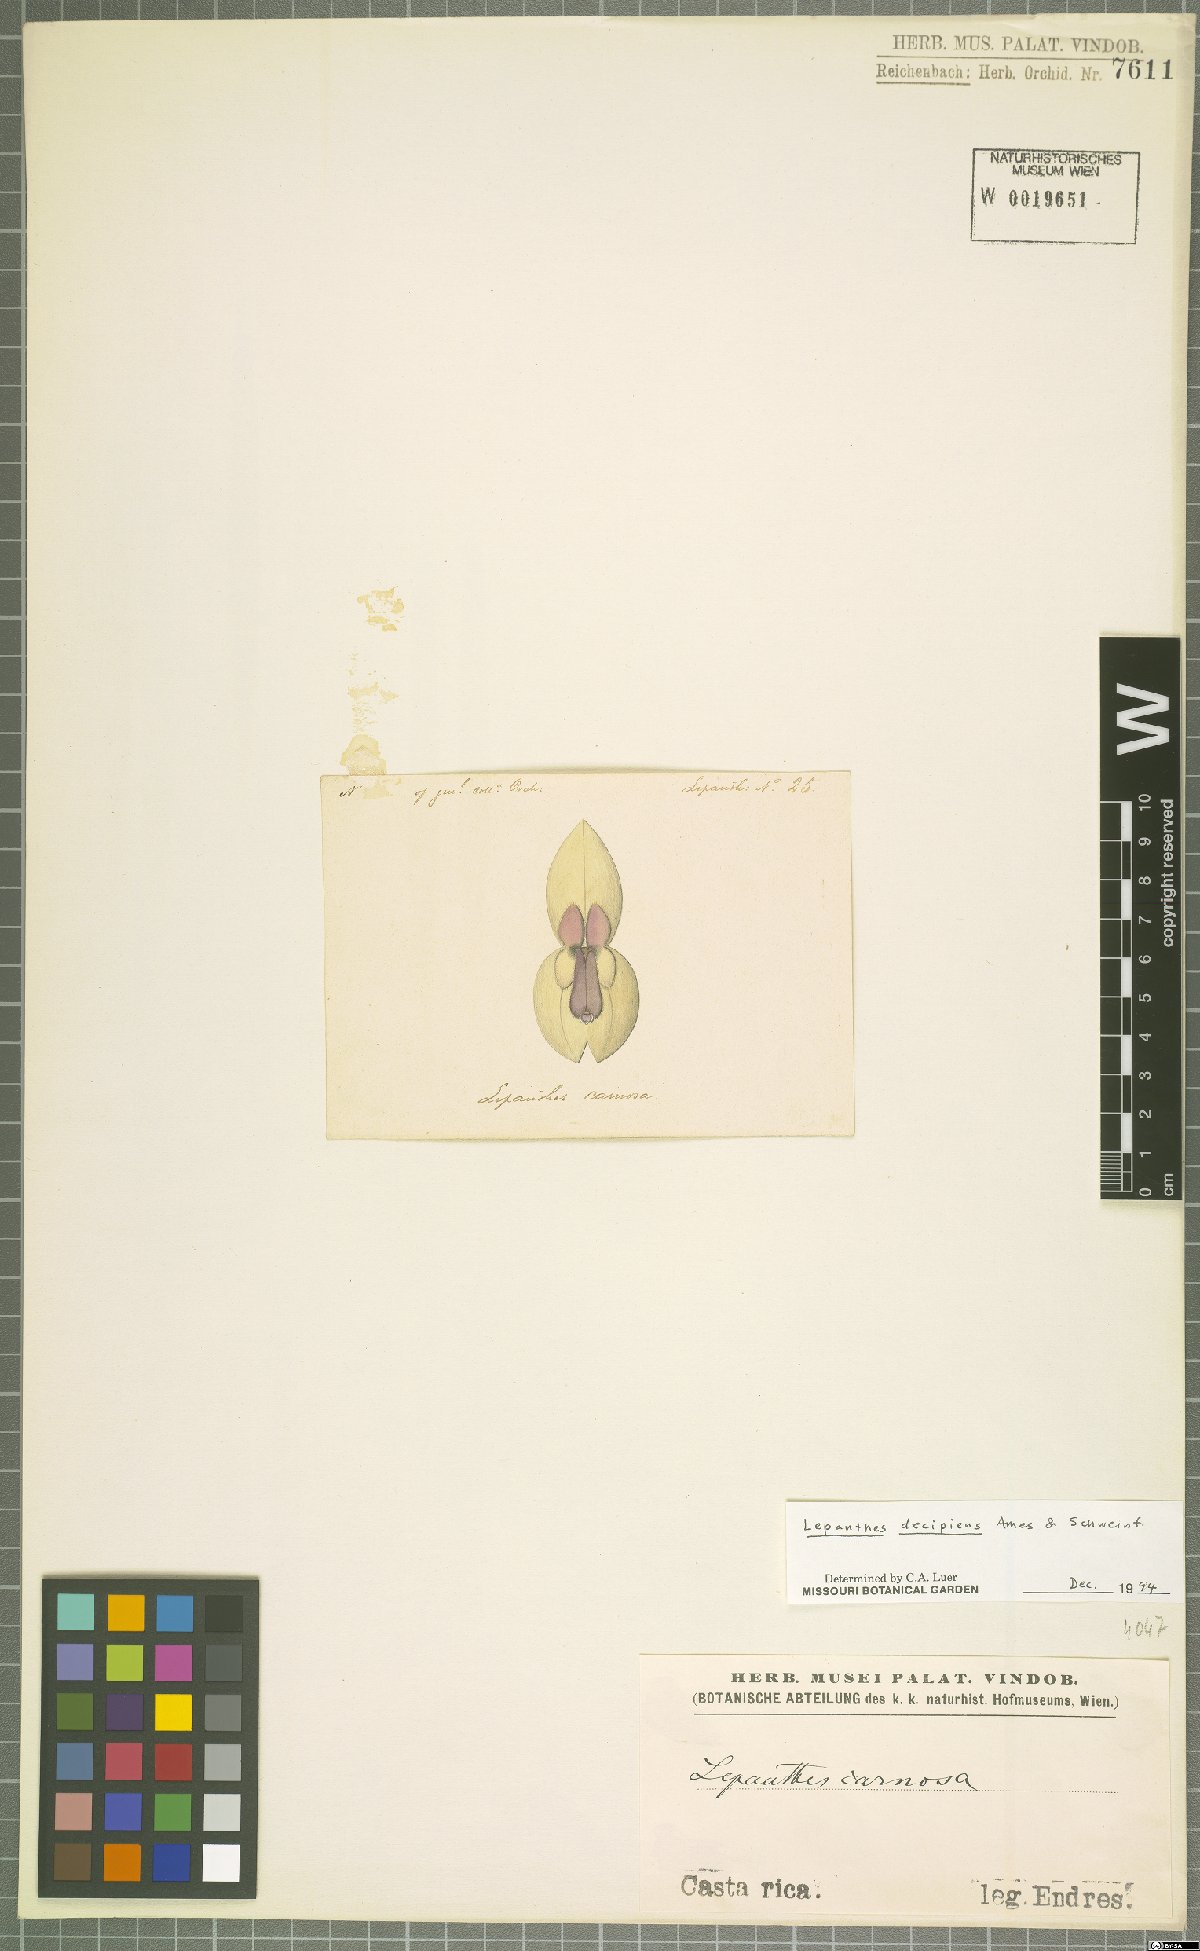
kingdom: Plantae
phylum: Tracheophyta
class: Liliopsida
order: Asparagales
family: Orchidaceae
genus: Lepanthes
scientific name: Lepanthes decipiens
